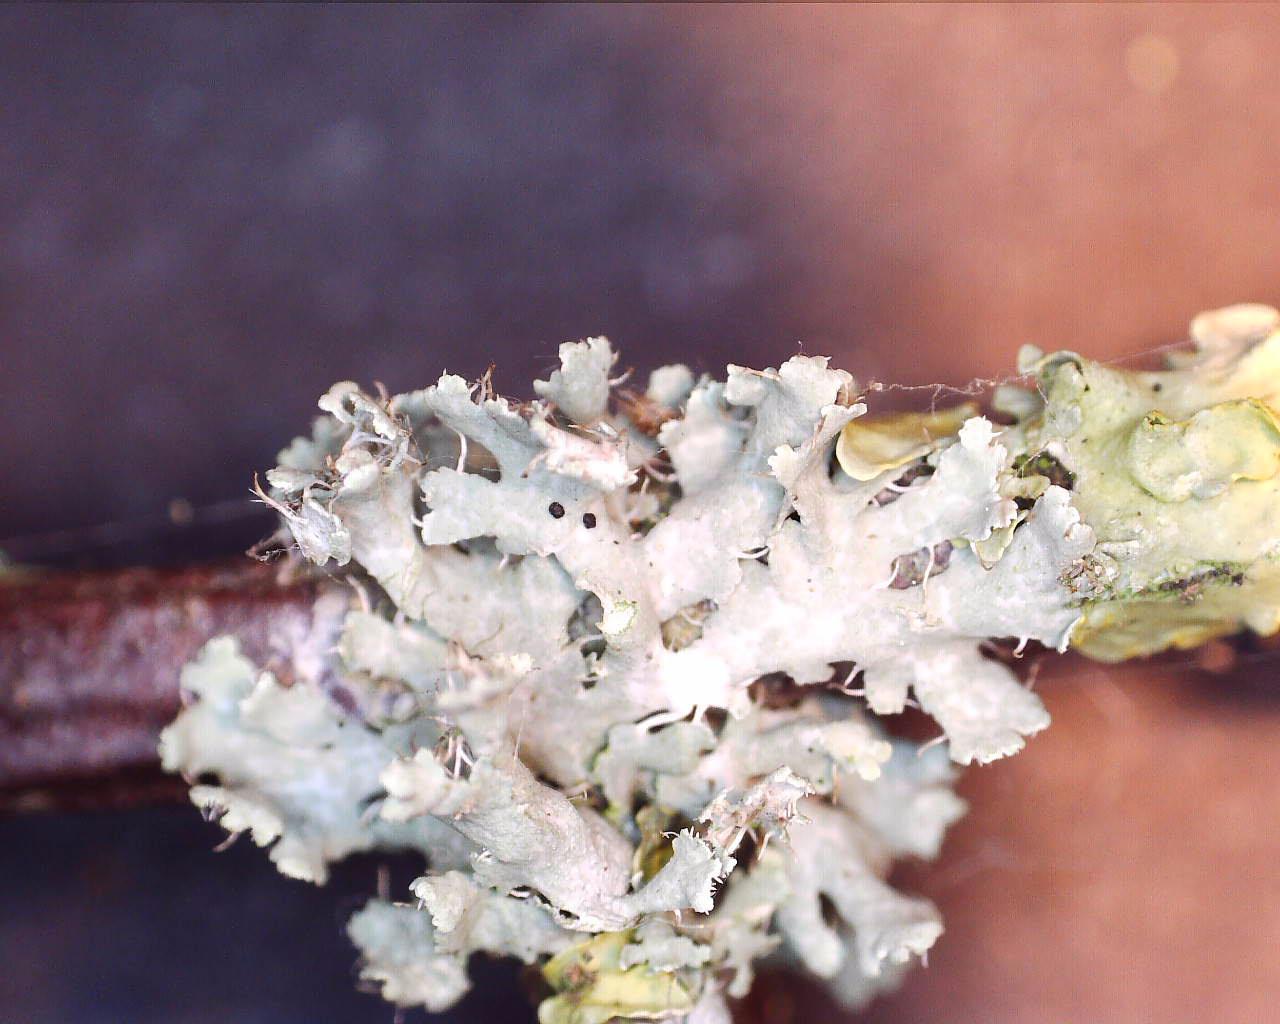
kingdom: Fungi
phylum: Ascomycota
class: Lecanoromycetes
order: Caliciales
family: Physciaceae
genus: Physcia
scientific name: Physcia tenella
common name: spæd rosetlav
